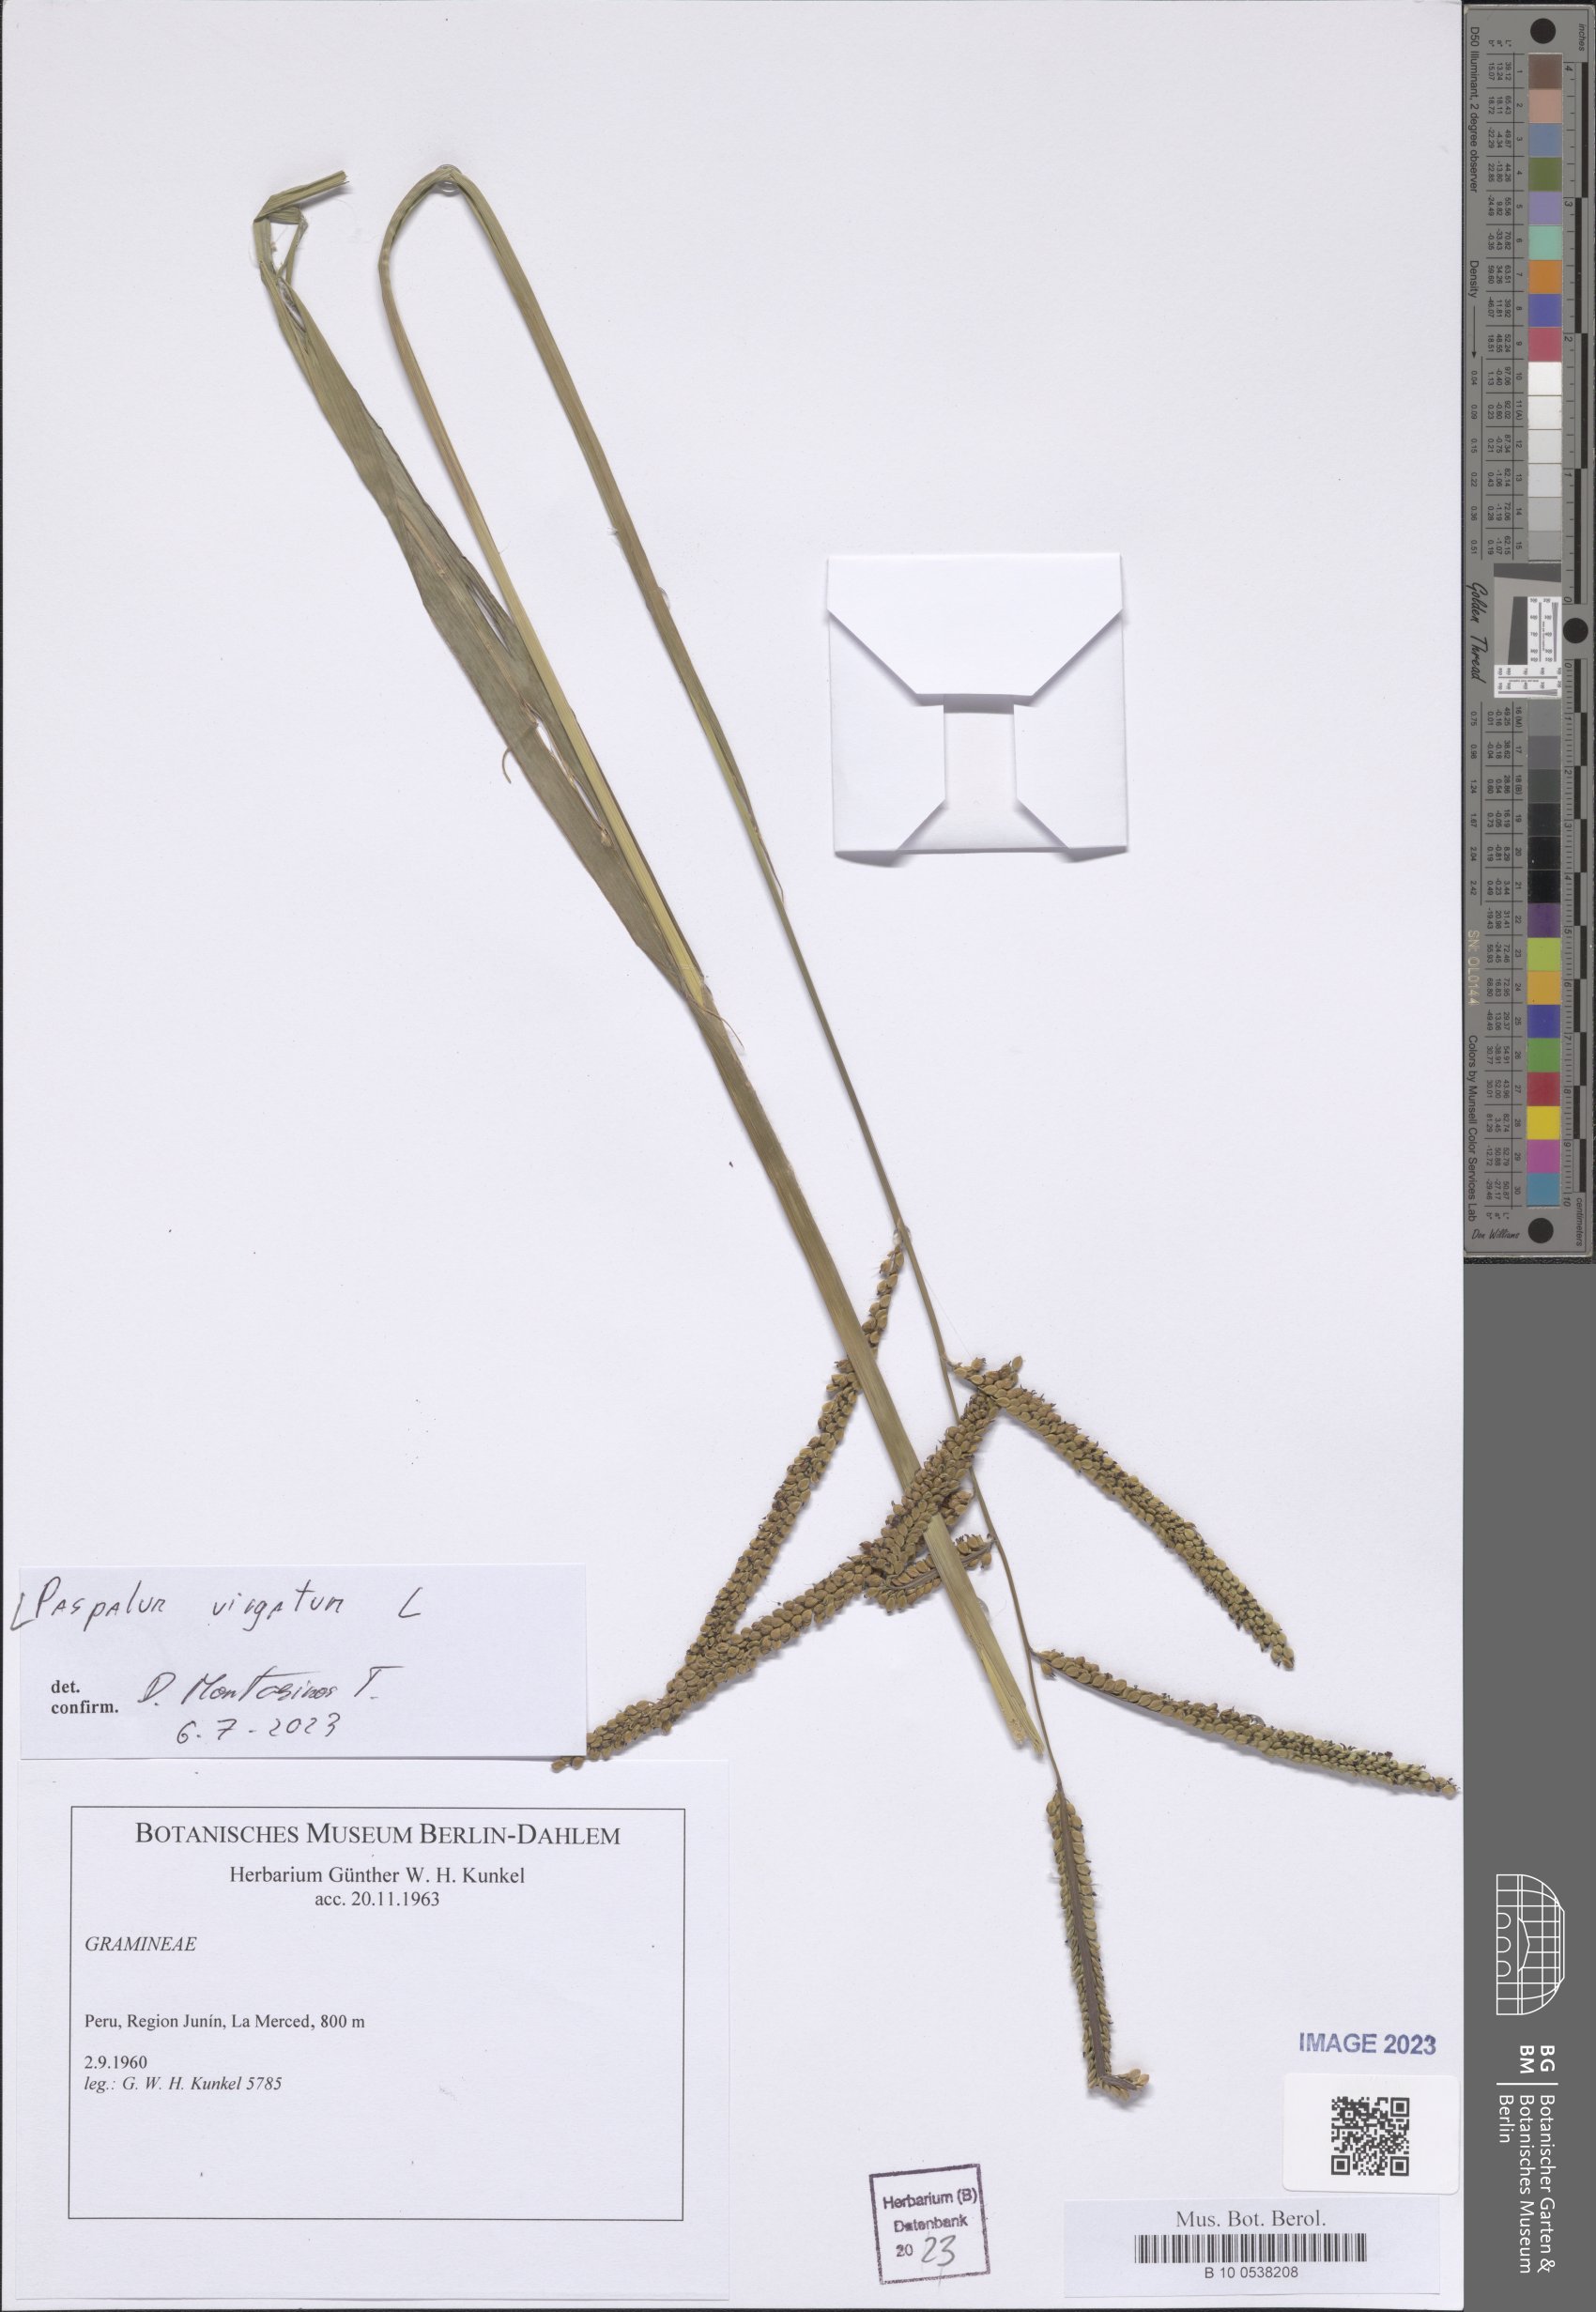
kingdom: Plantae
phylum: Tracheophyta
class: Liliopsida
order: Poales
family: Poaceae
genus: Paspalum
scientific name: Paspalum virgatum
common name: Talquezal
